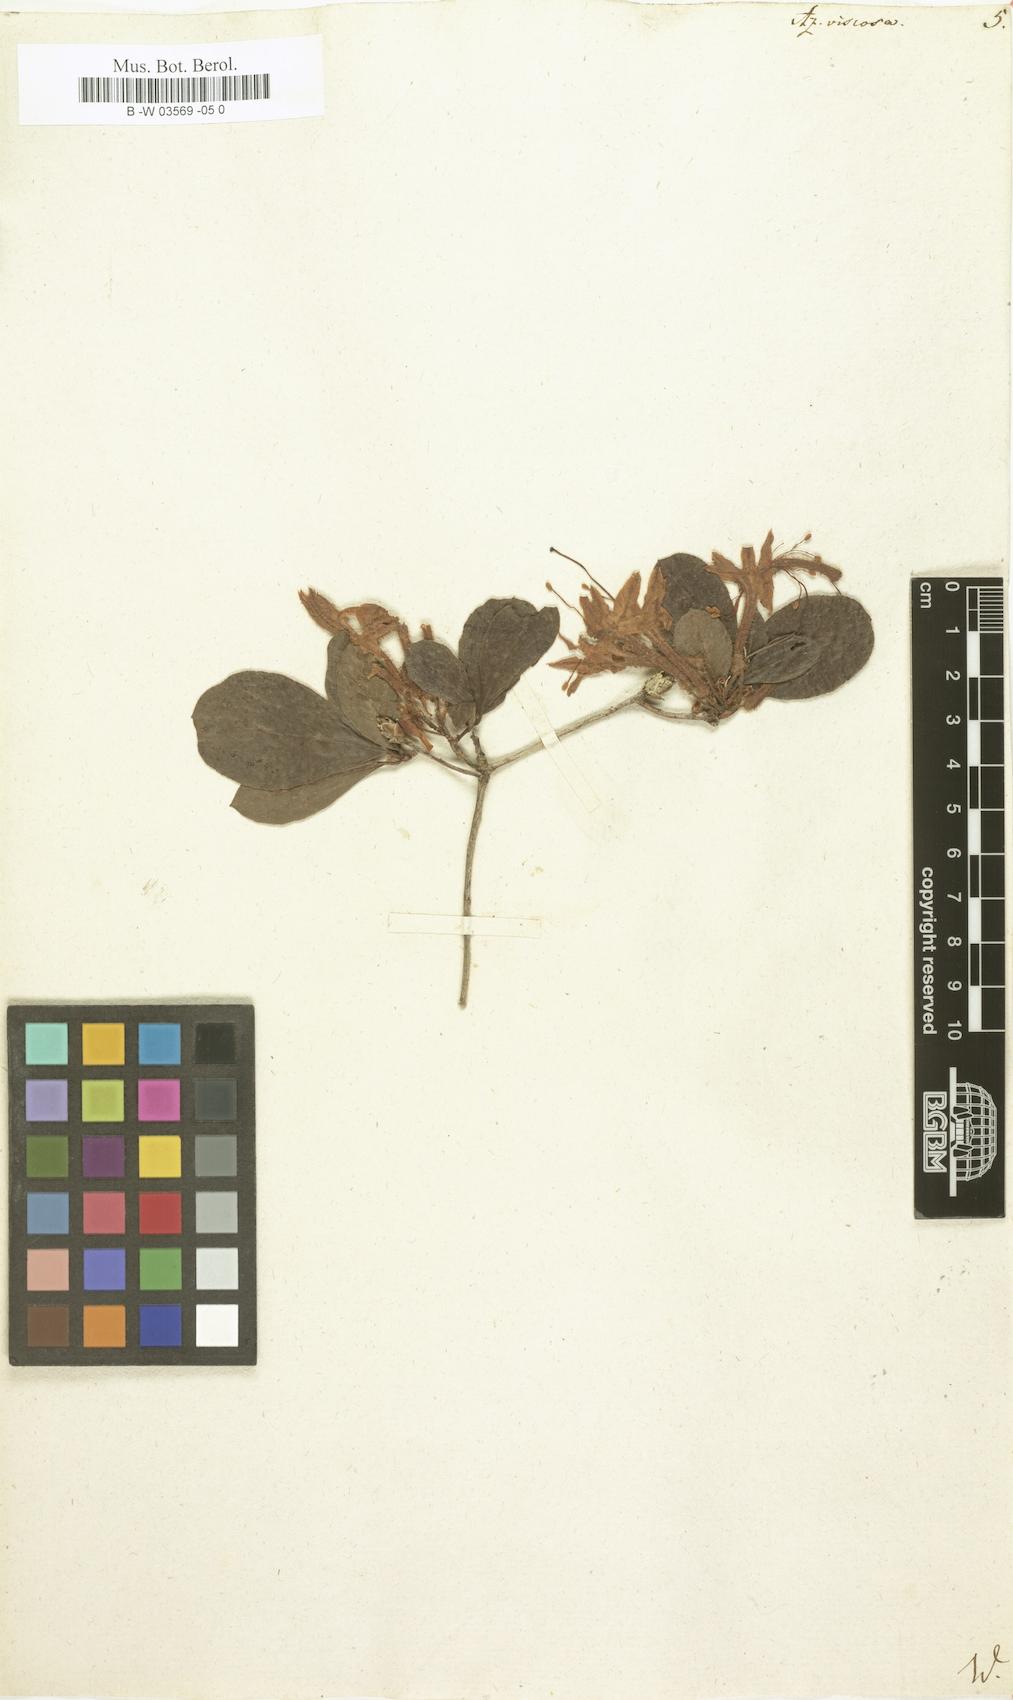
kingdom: Plantae
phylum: Tracheophyta
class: Magnoliopsida
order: Ericales
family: Ericaceae
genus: Rhododendron
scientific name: Rhododendron viscosum
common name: Clammy azalea
